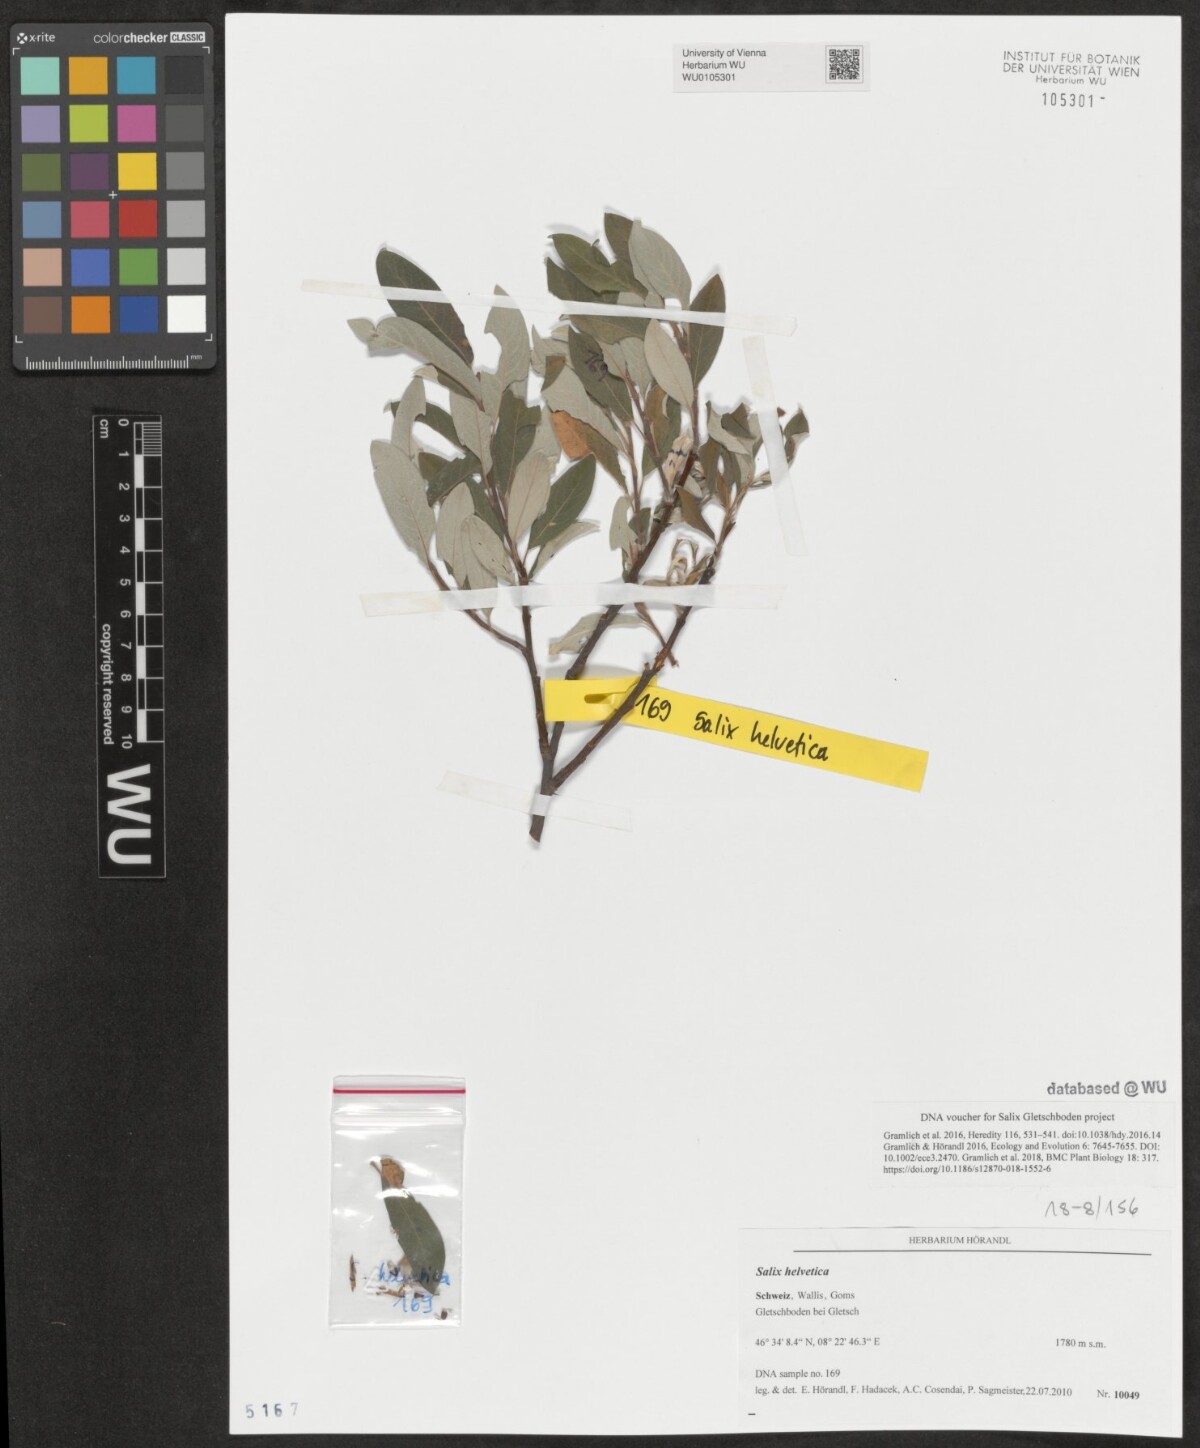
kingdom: Plantae
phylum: Tracheophyta
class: Magnoliopsida
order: Malpighiales
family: Salicaceae
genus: Salix
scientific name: Salix helvetica
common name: Swiss willow
